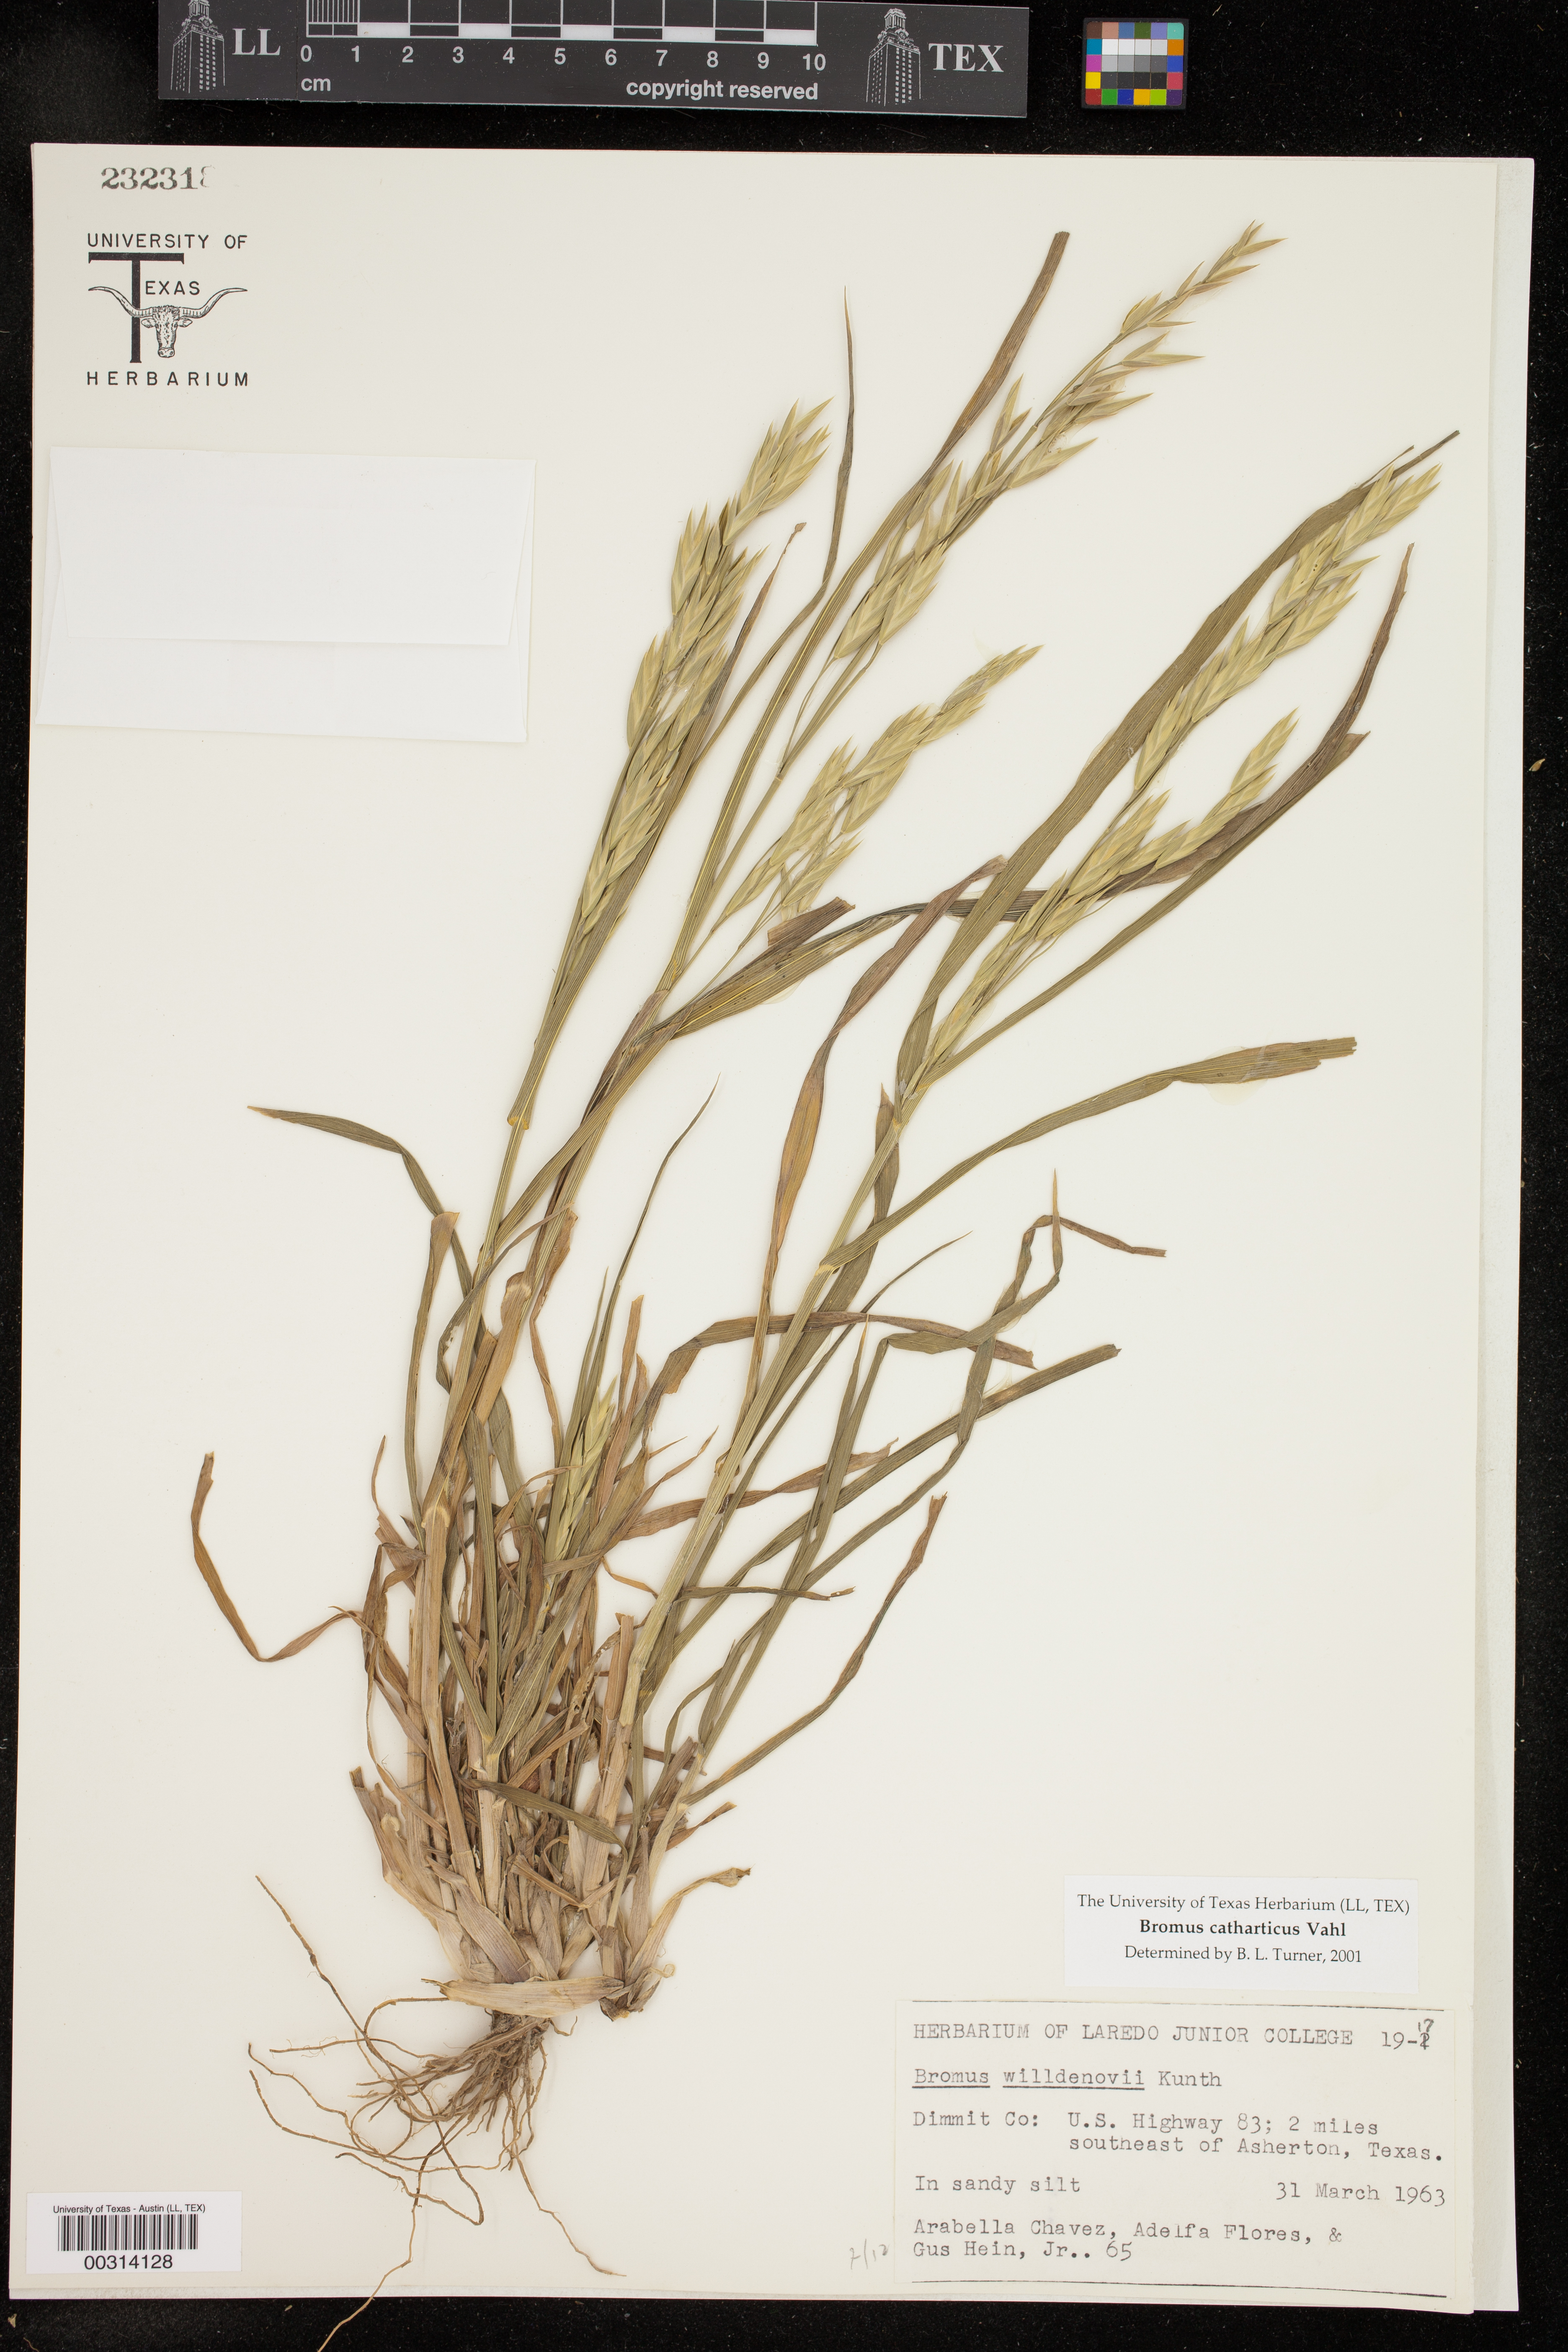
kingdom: Plantae
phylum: Tracheophyta
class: Liliopsida
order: Poales
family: Poaceae
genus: Bromus
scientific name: Bromus catharticus
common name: Rescuegrass
